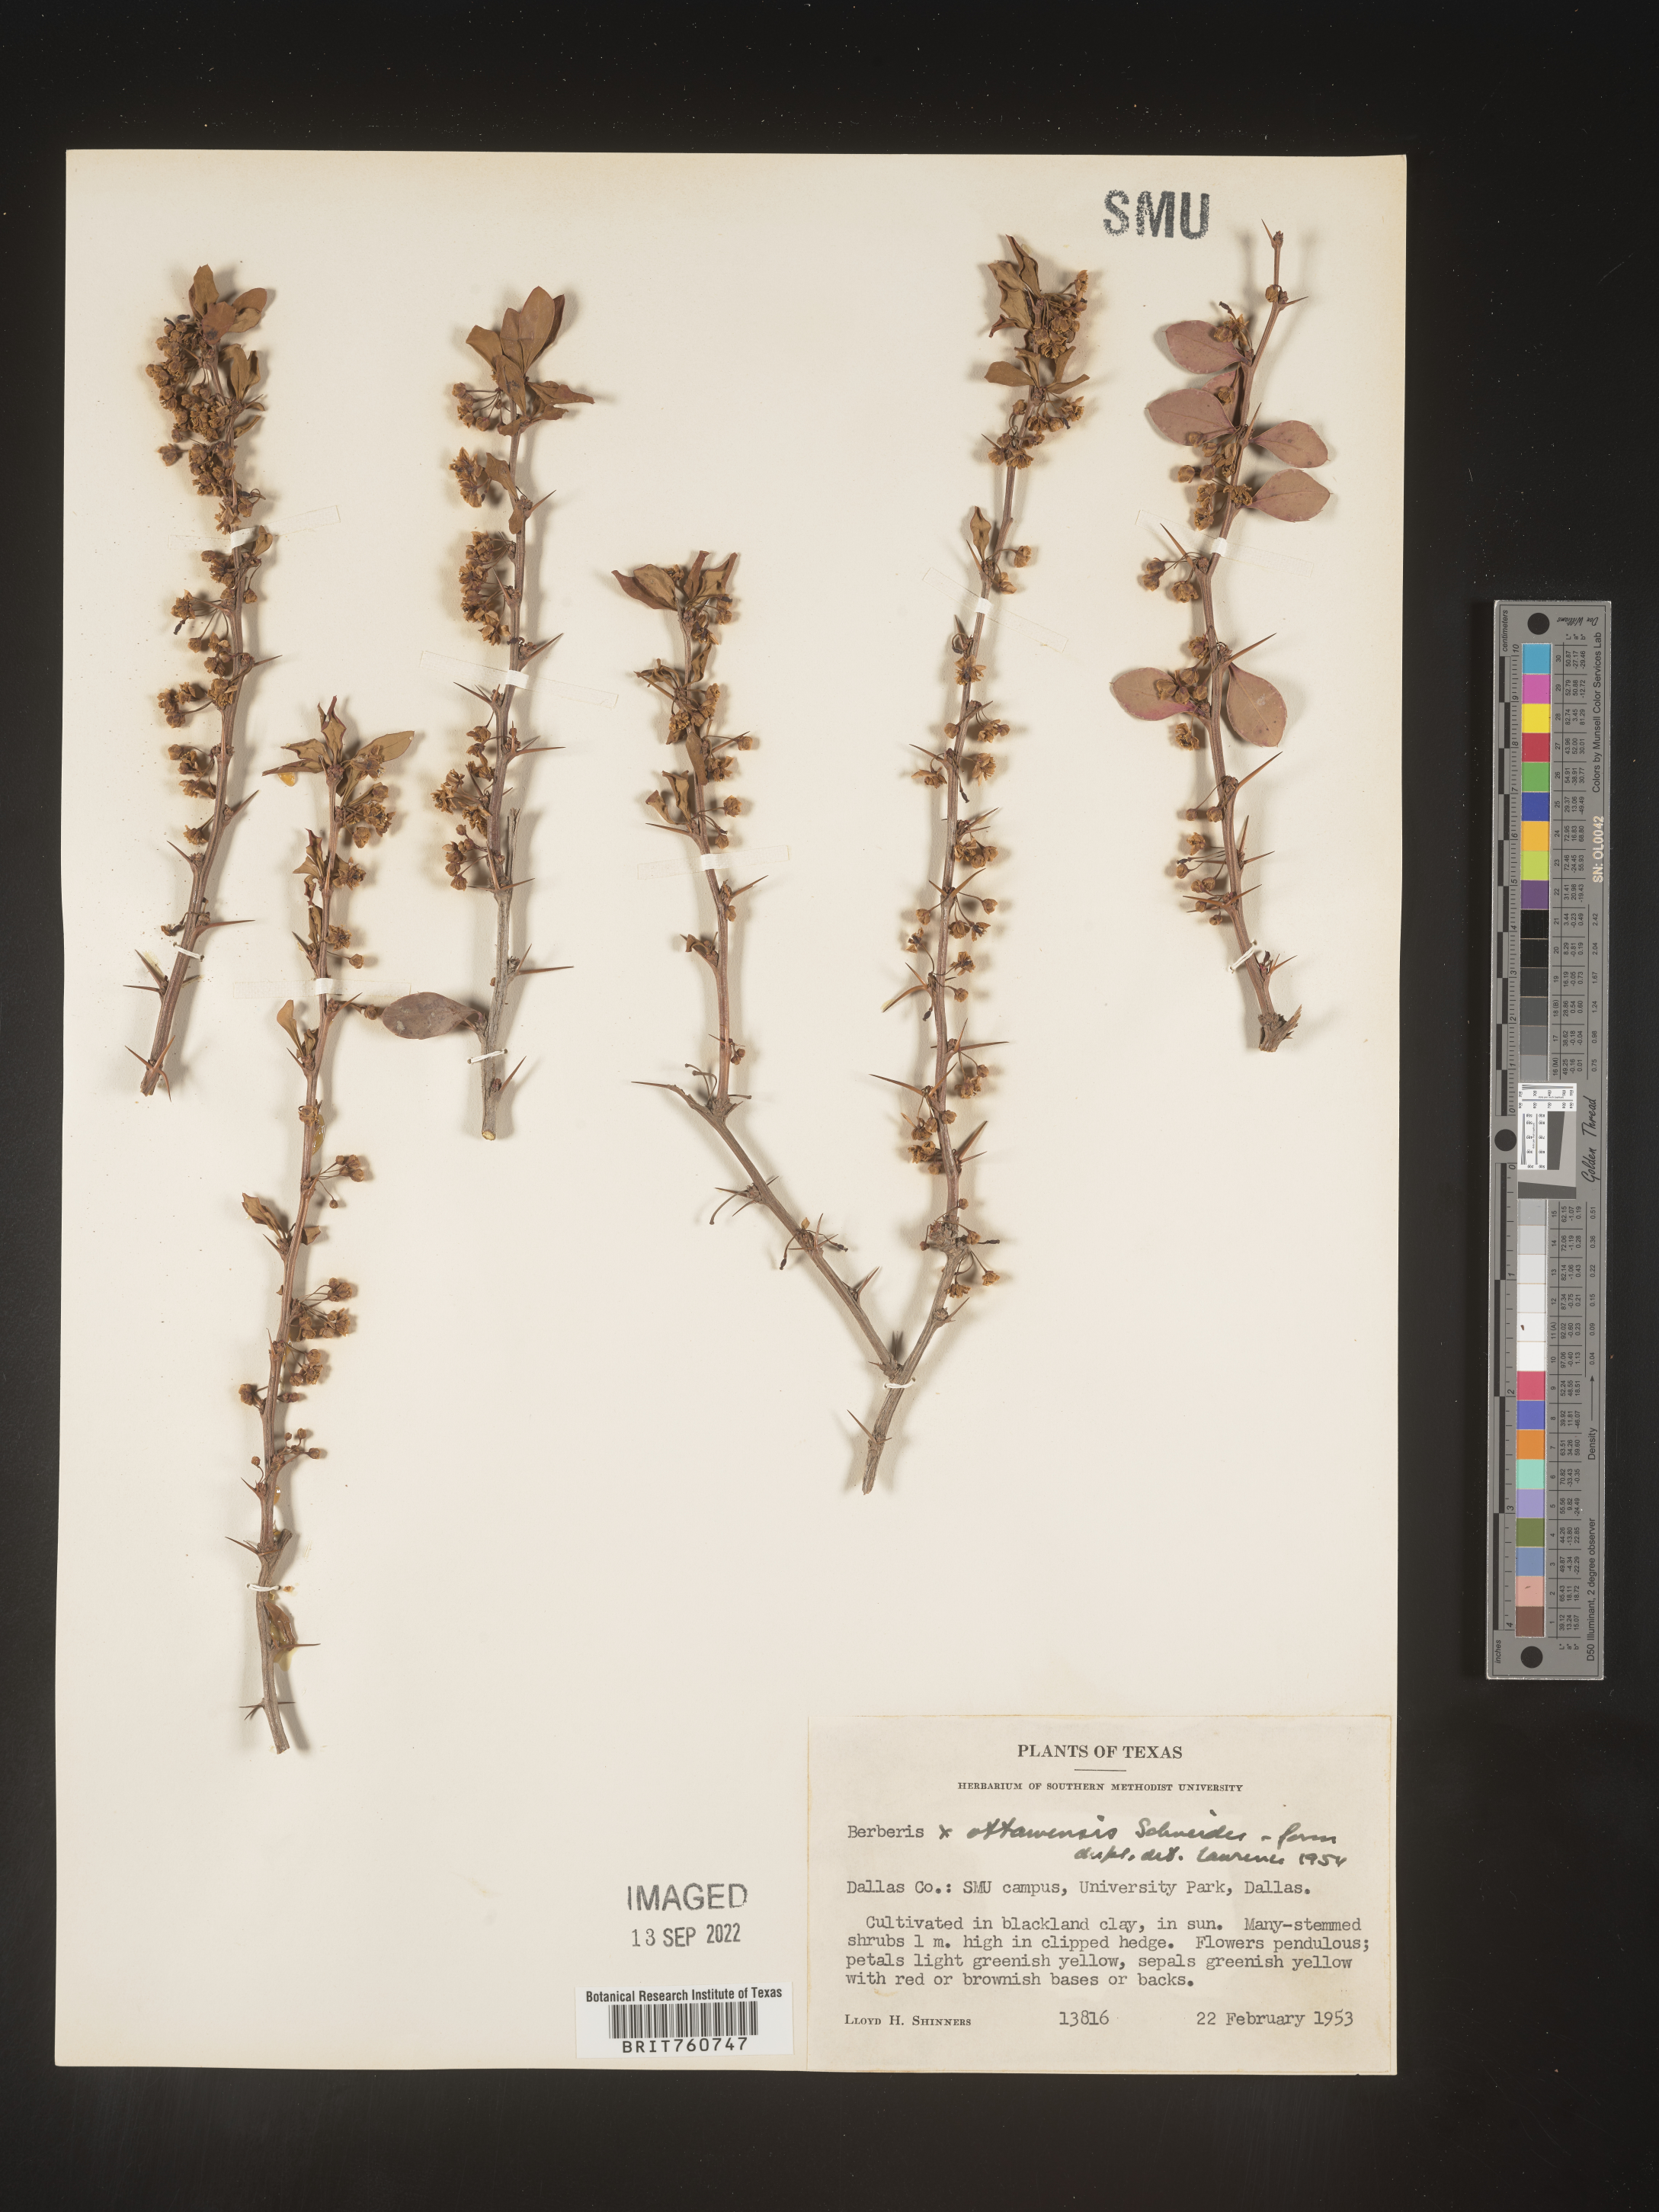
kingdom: Plantae
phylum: Tracheophyta
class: Magnoliopsida
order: Ranunculales
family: Berberidaceae
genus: Berberis
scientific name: Berberis
